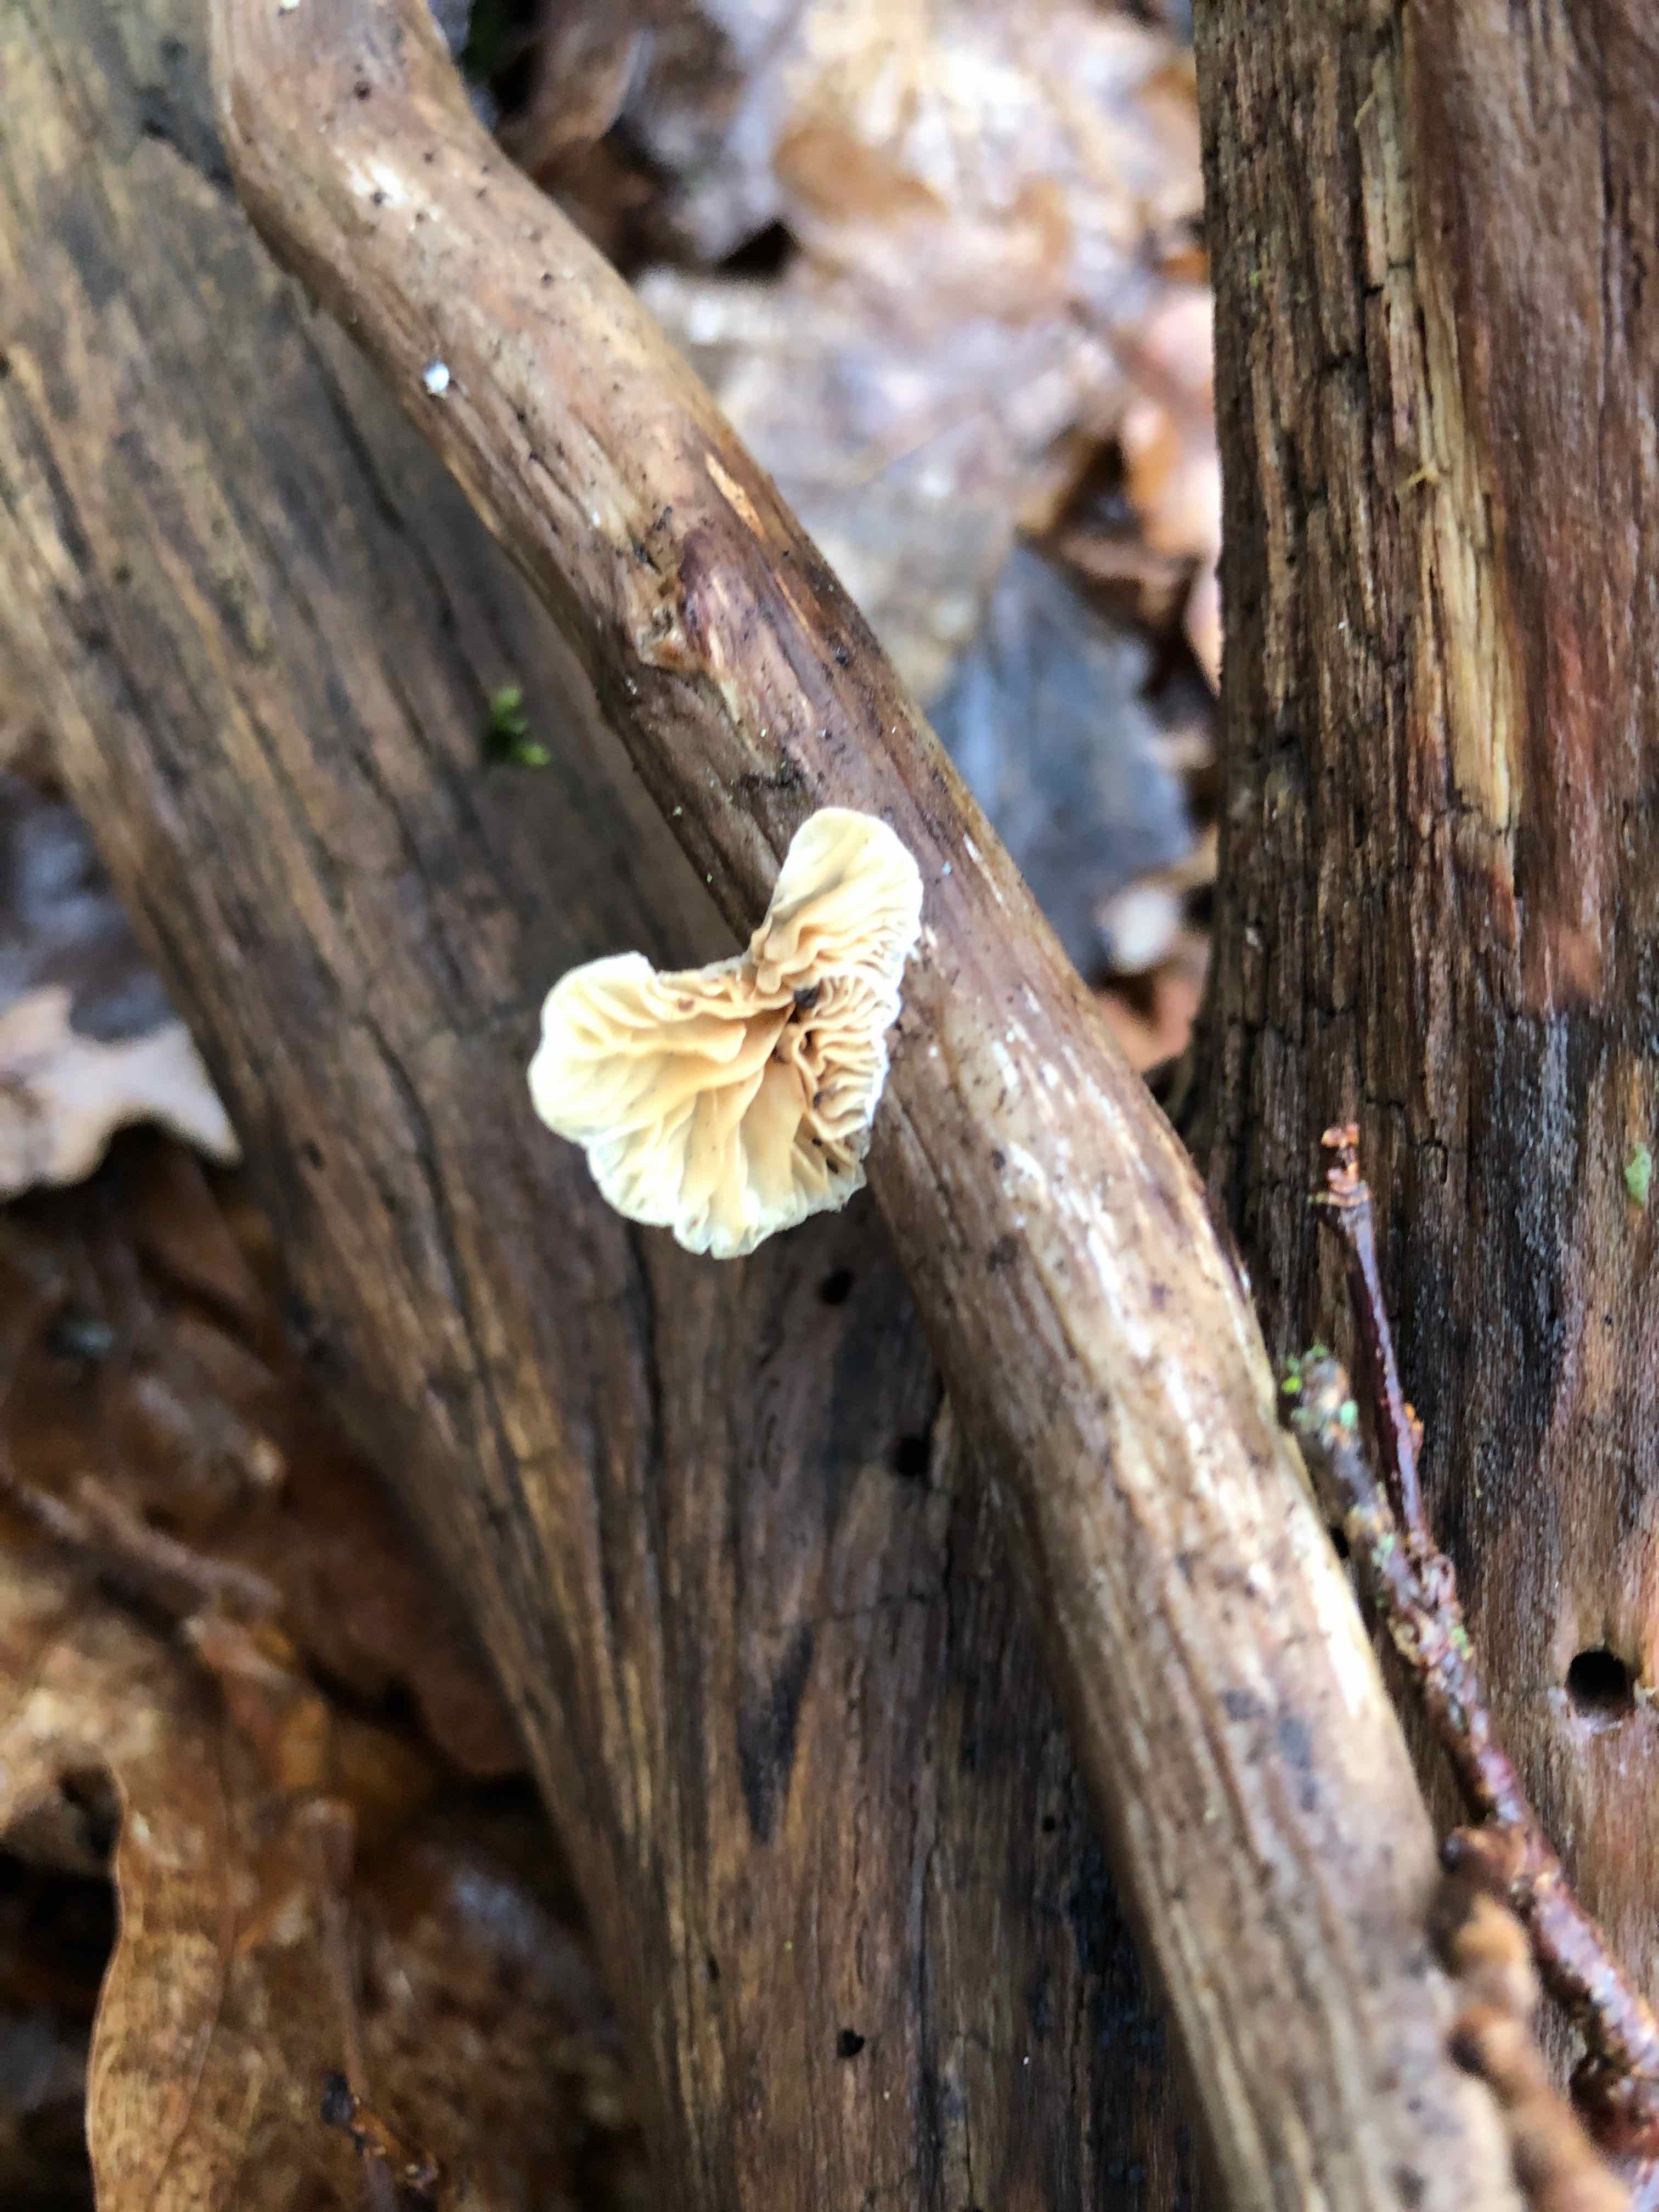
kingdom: Fungi
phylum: Basidiomycota
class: Agaricomycetes
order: Agaricales
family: Crepidotaceae
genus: Crepidotus
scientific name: Crepidotus cesatii
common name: almindelig muslingesvamp
